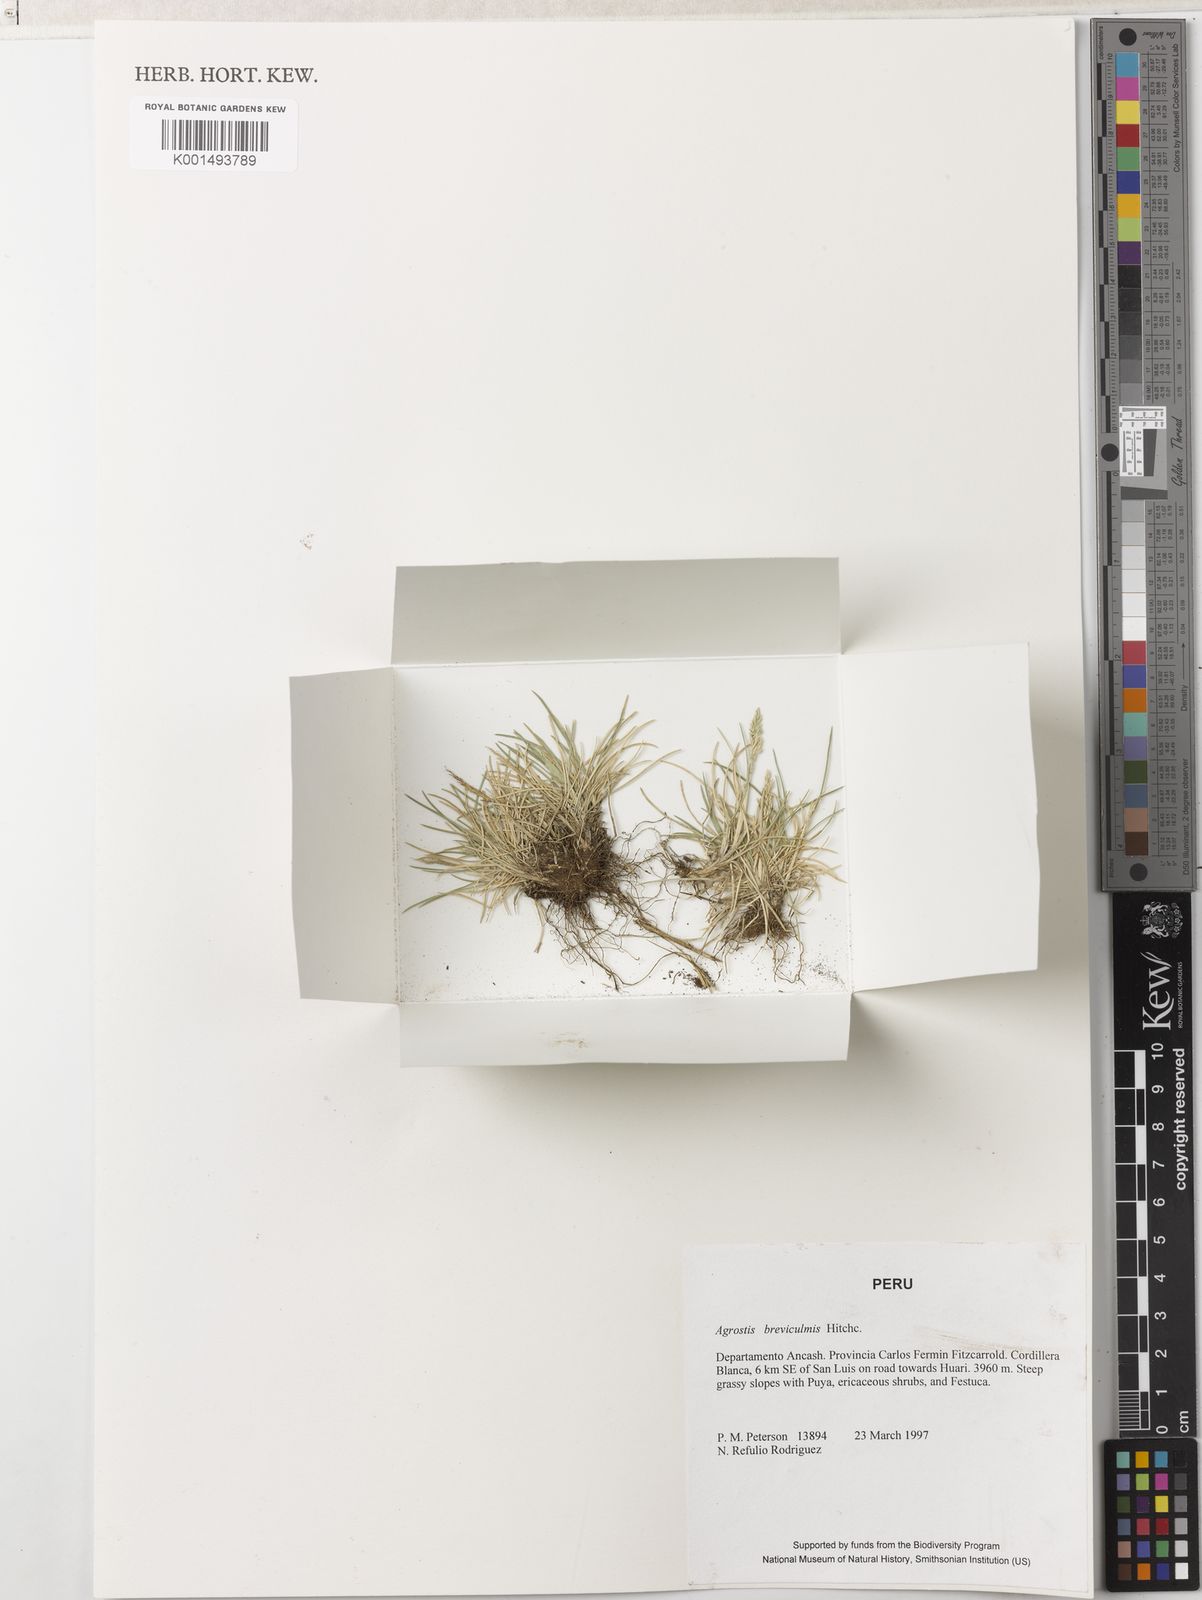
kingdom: Plantae
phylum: Tracheophyta
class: Liliopsida
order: Poales
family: Poaceae
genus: Agrostis
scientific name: Agrostis breviculmis
